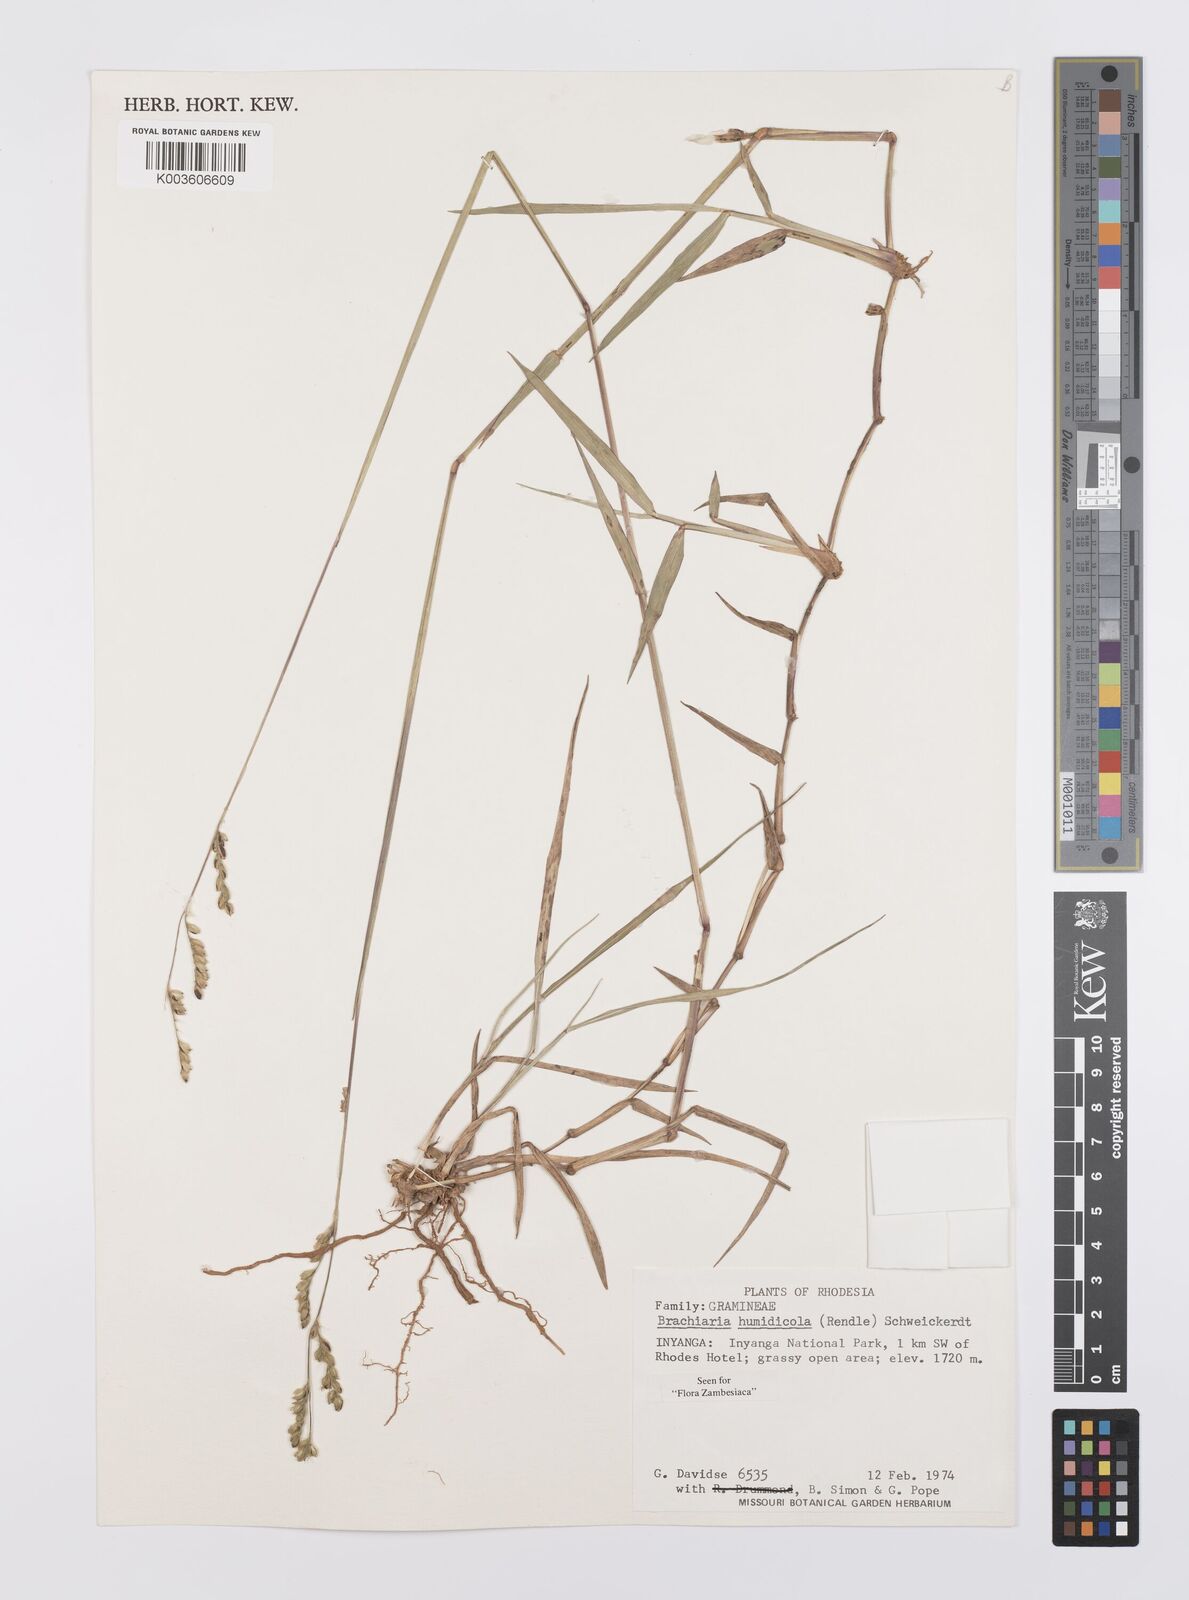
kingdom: Plantae
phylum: Tracheophyta
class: Liliopsida
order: Poales
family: Poaceae
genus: Urochloa
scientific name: Urochloa dictyoneura
